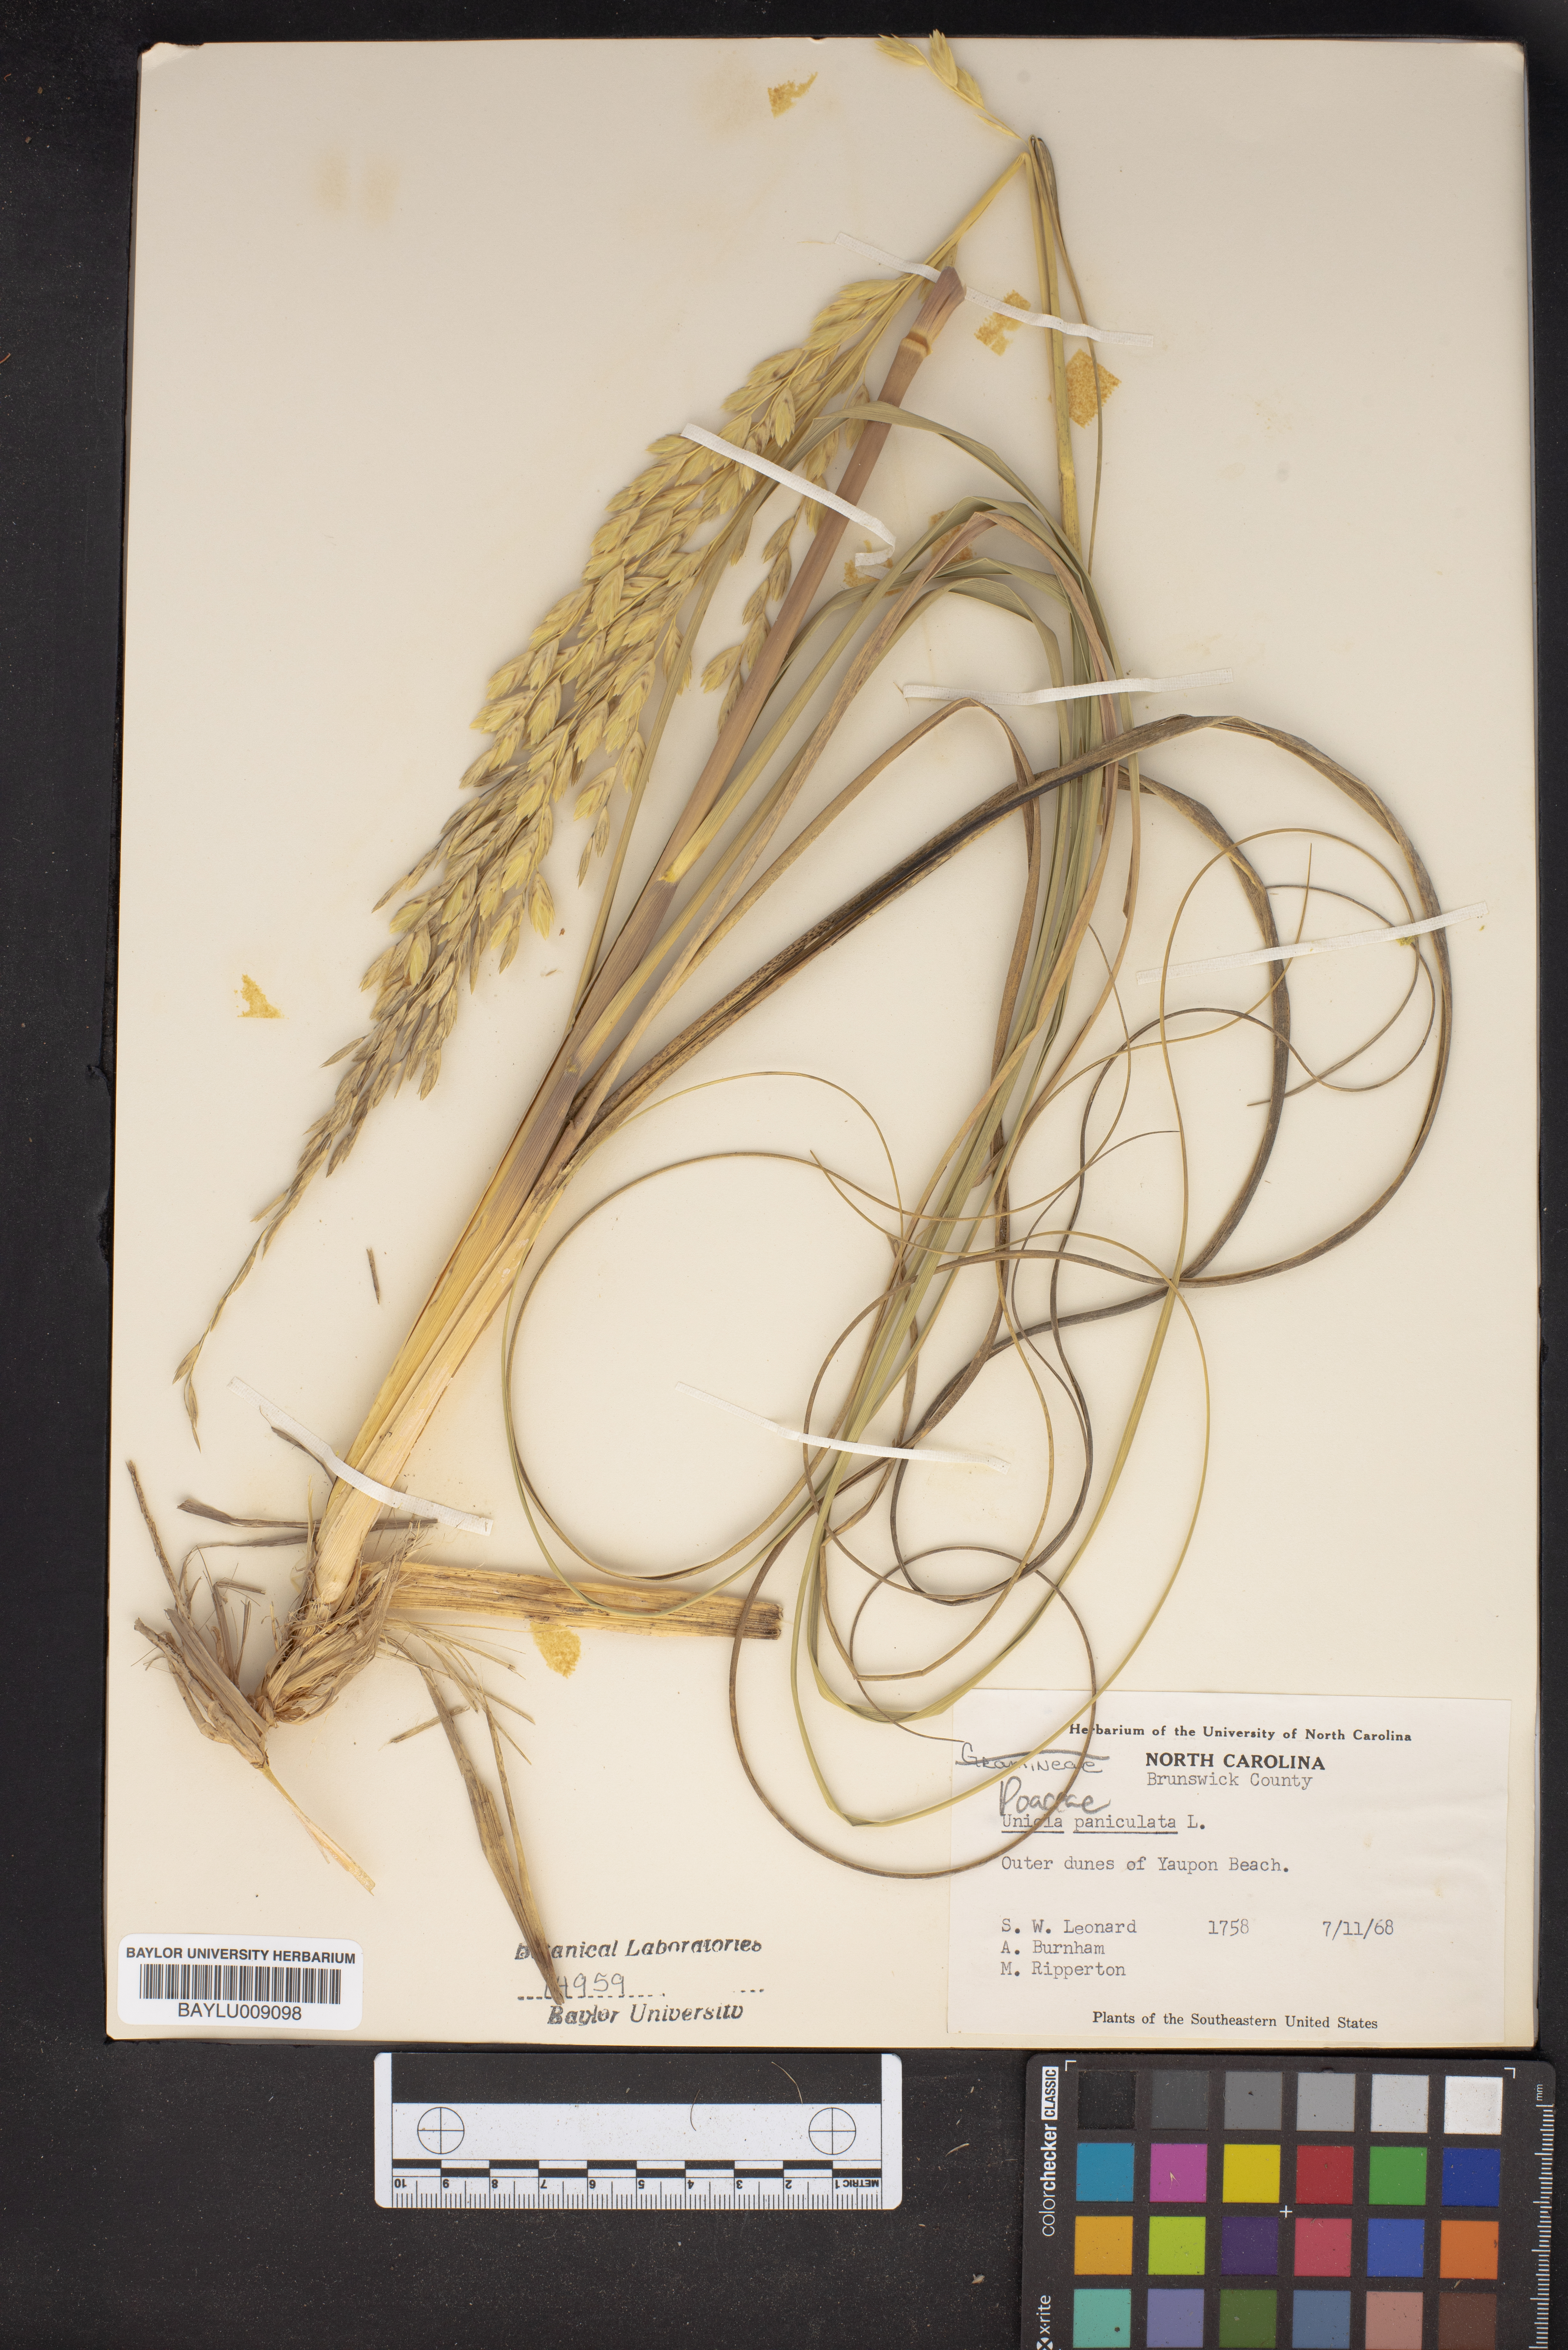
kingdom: Plantae
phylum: Tracheophyta
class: Liliopsida
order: Poales
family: Poaceae
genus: Uniola
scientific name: Uniola paniculata
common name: Seaside-oats
